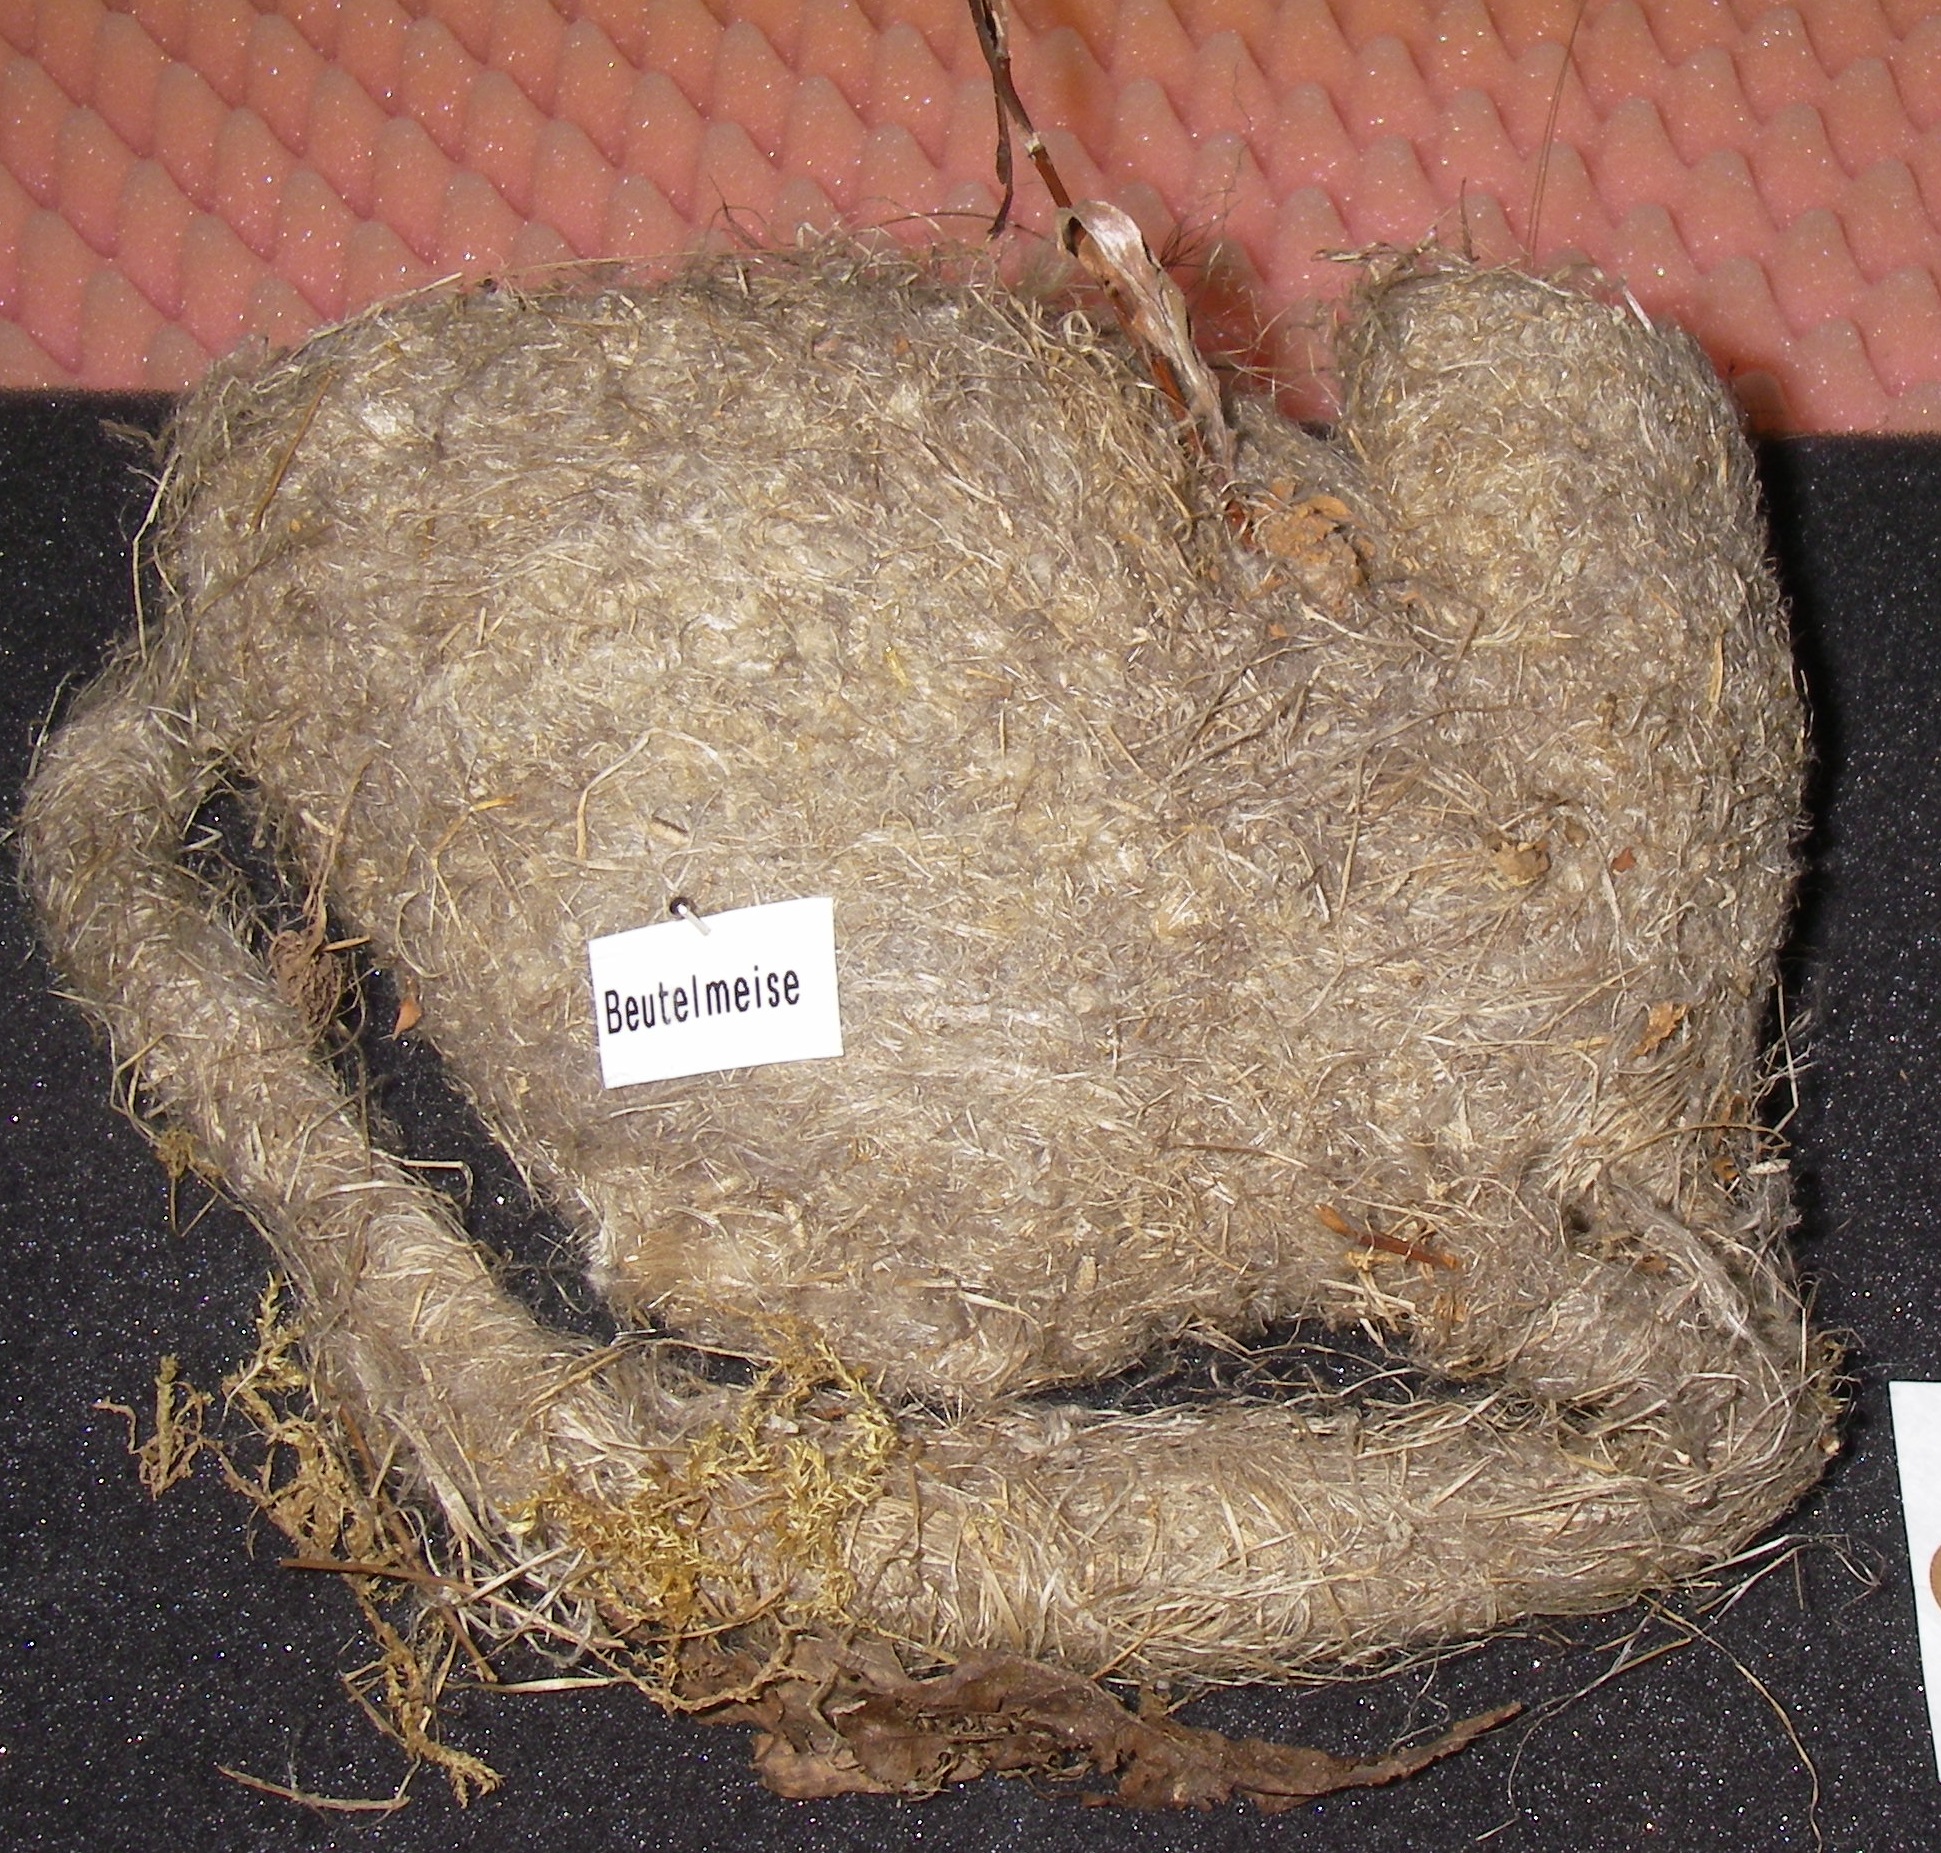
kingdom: Animalia
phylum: Chordata
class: Aves
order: Passeriformes
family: Remizidae
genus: Remiz
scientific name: Remiz pendulinus
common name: Eurasian penduline tit
